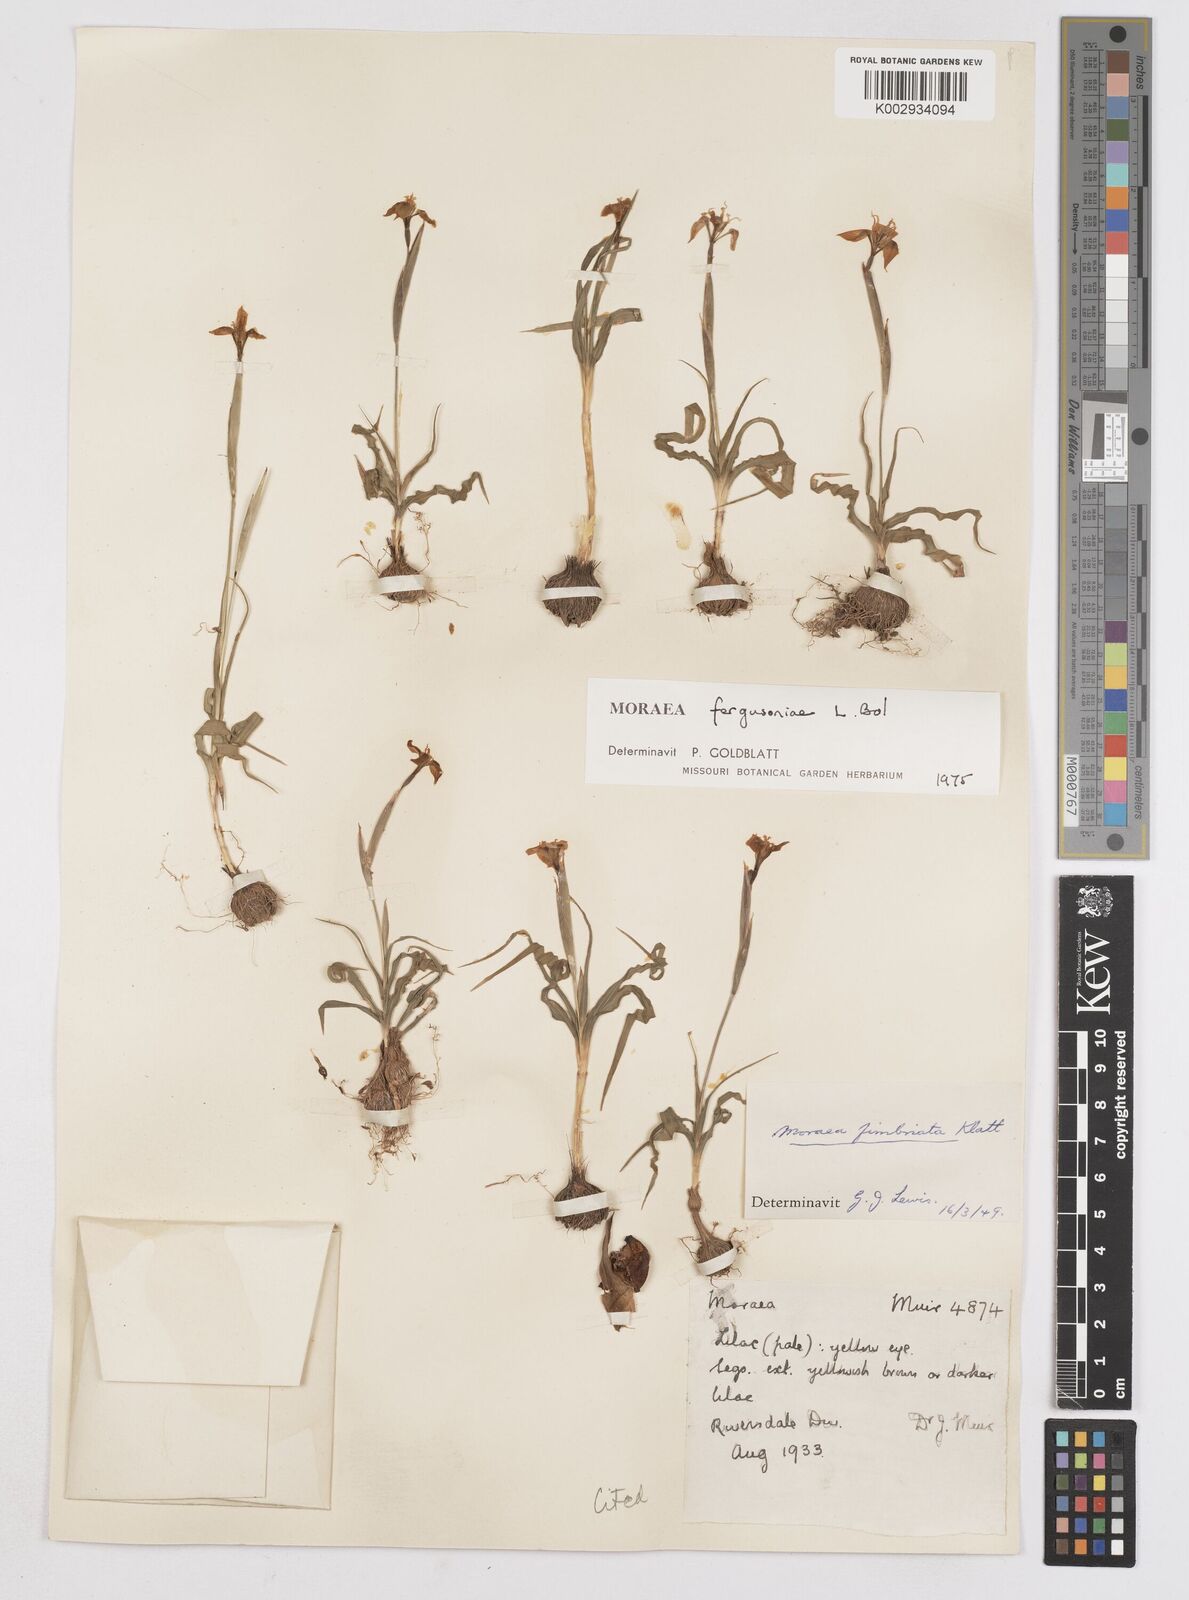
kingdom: Plantae
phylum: Tracheophyta
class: Liliopsida
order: Asparagales
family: Iridaceae
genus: Moraea
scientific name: Moraea fergusoniae
